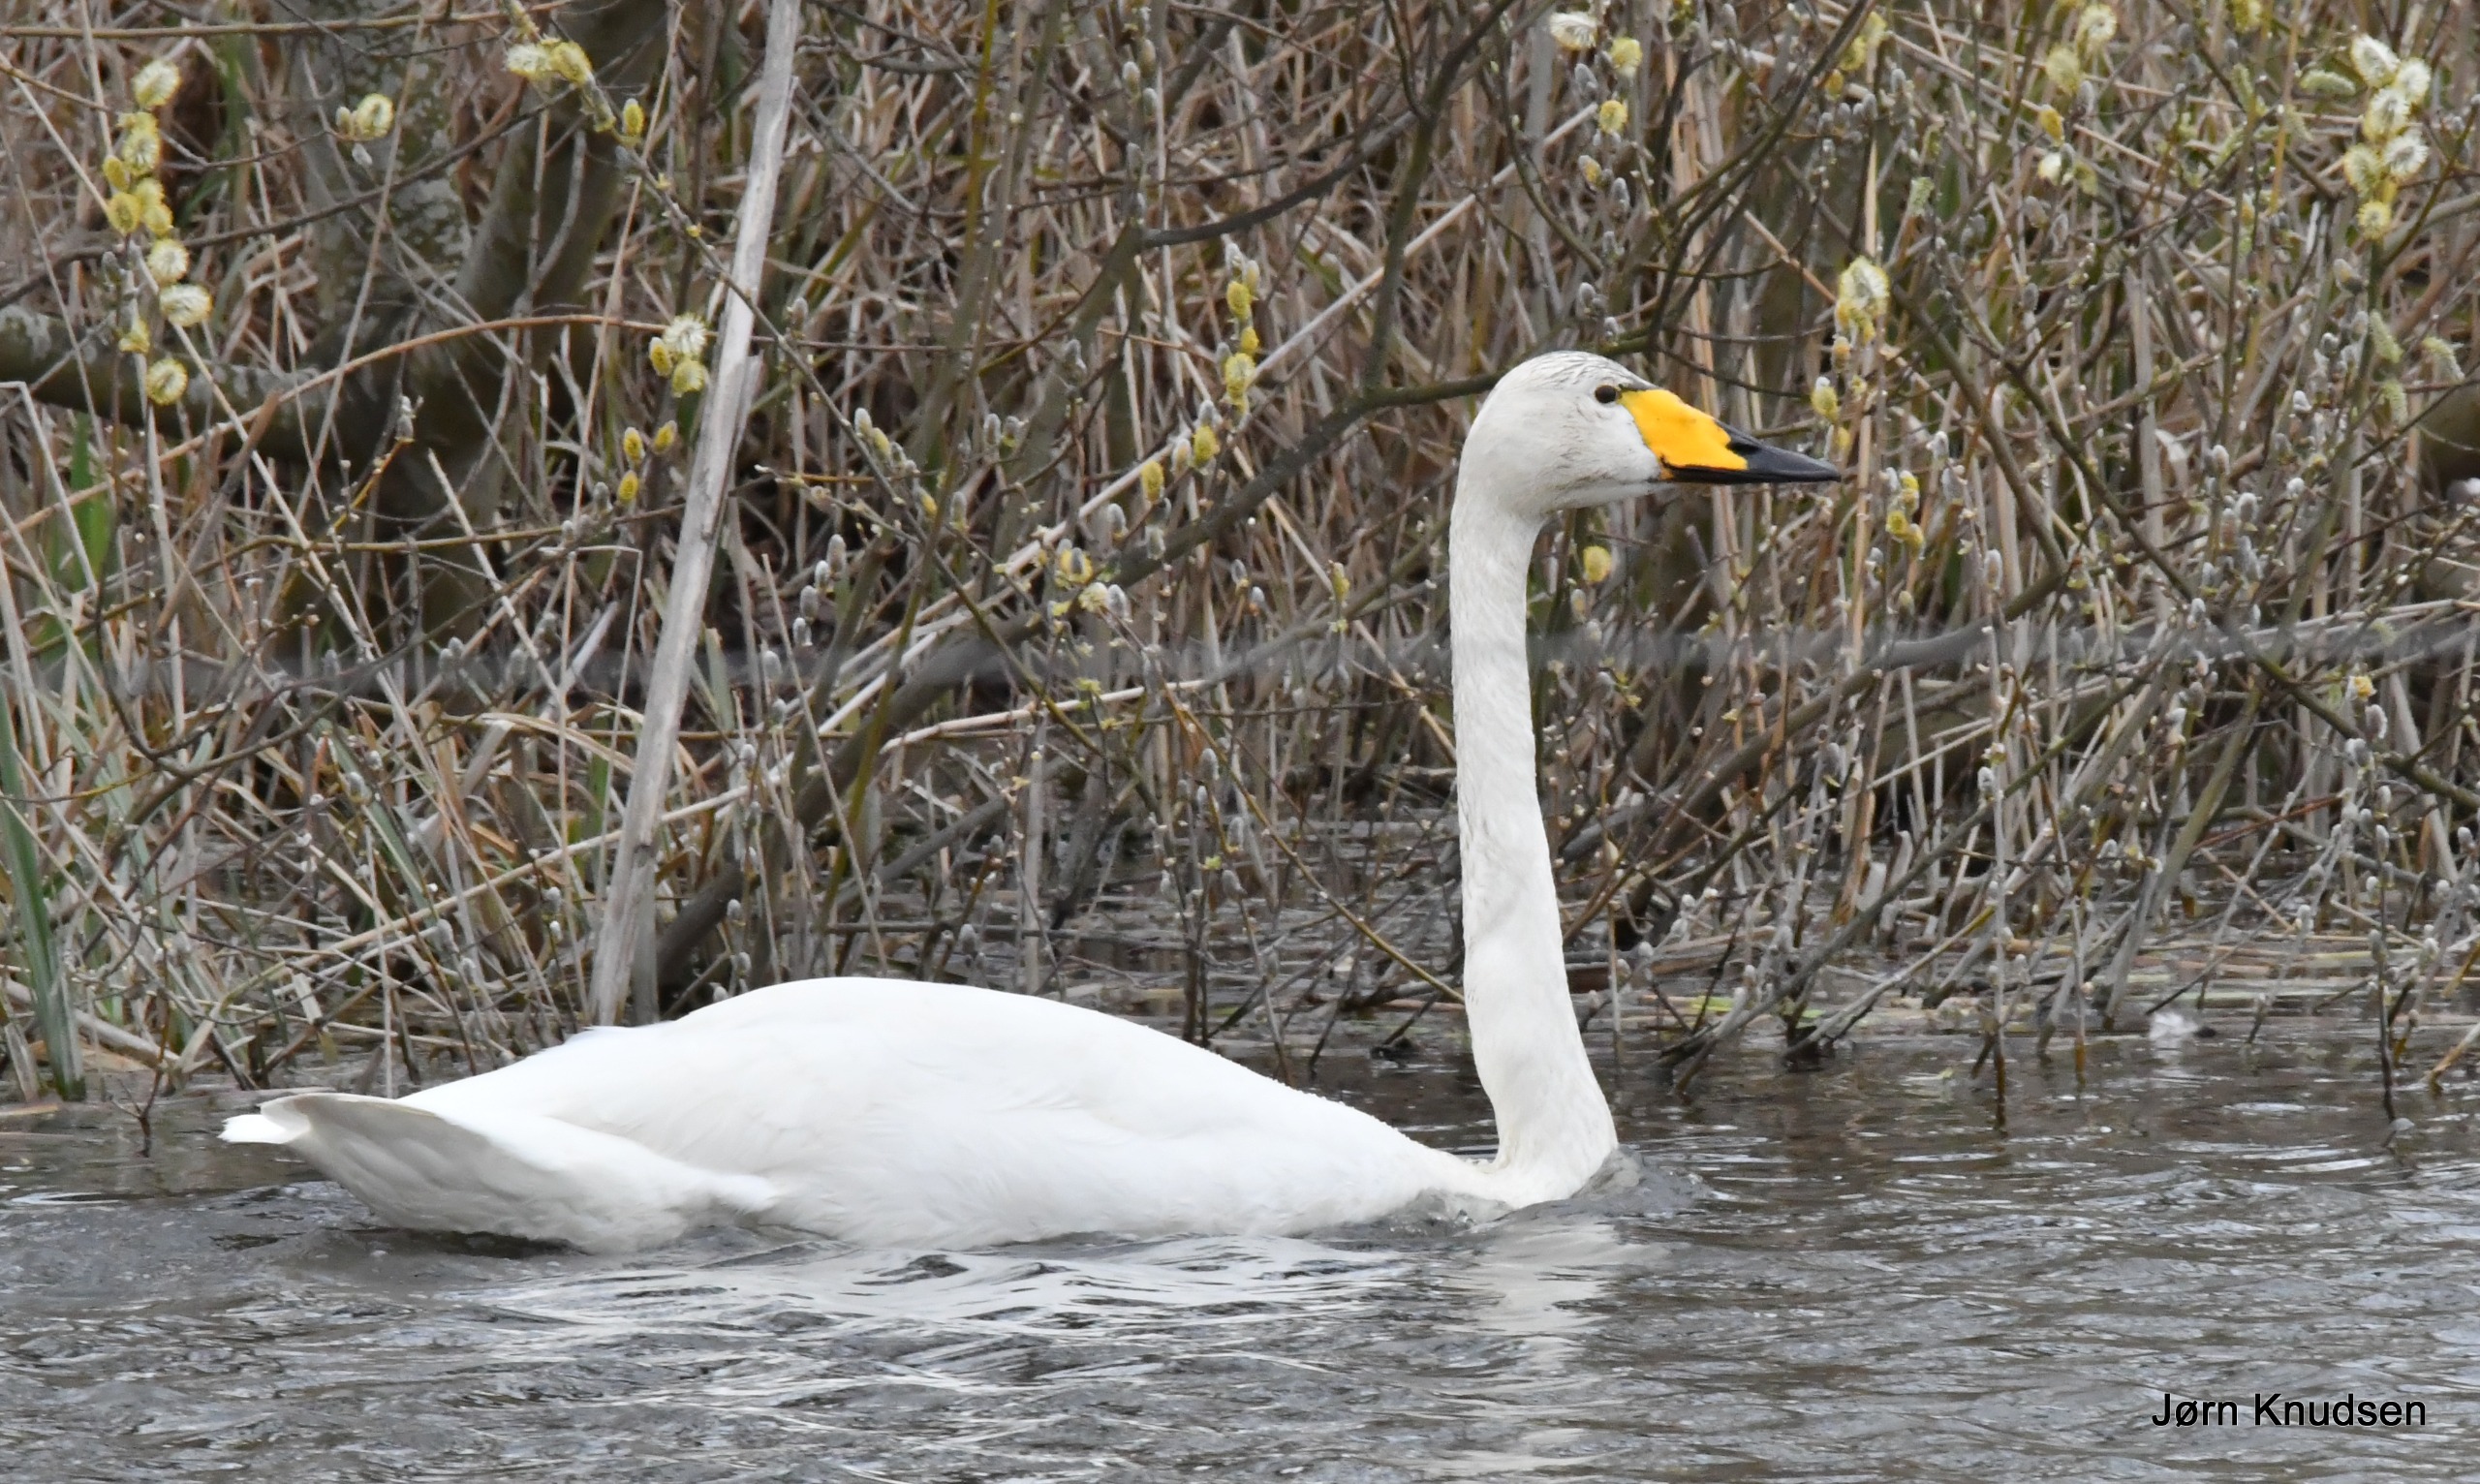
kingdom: Animalia
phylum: Chordata
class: Aves
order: Anseriformes
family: Anatidae
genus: Cygnus
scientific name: Cygnus cygnus
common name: Sangsvane
